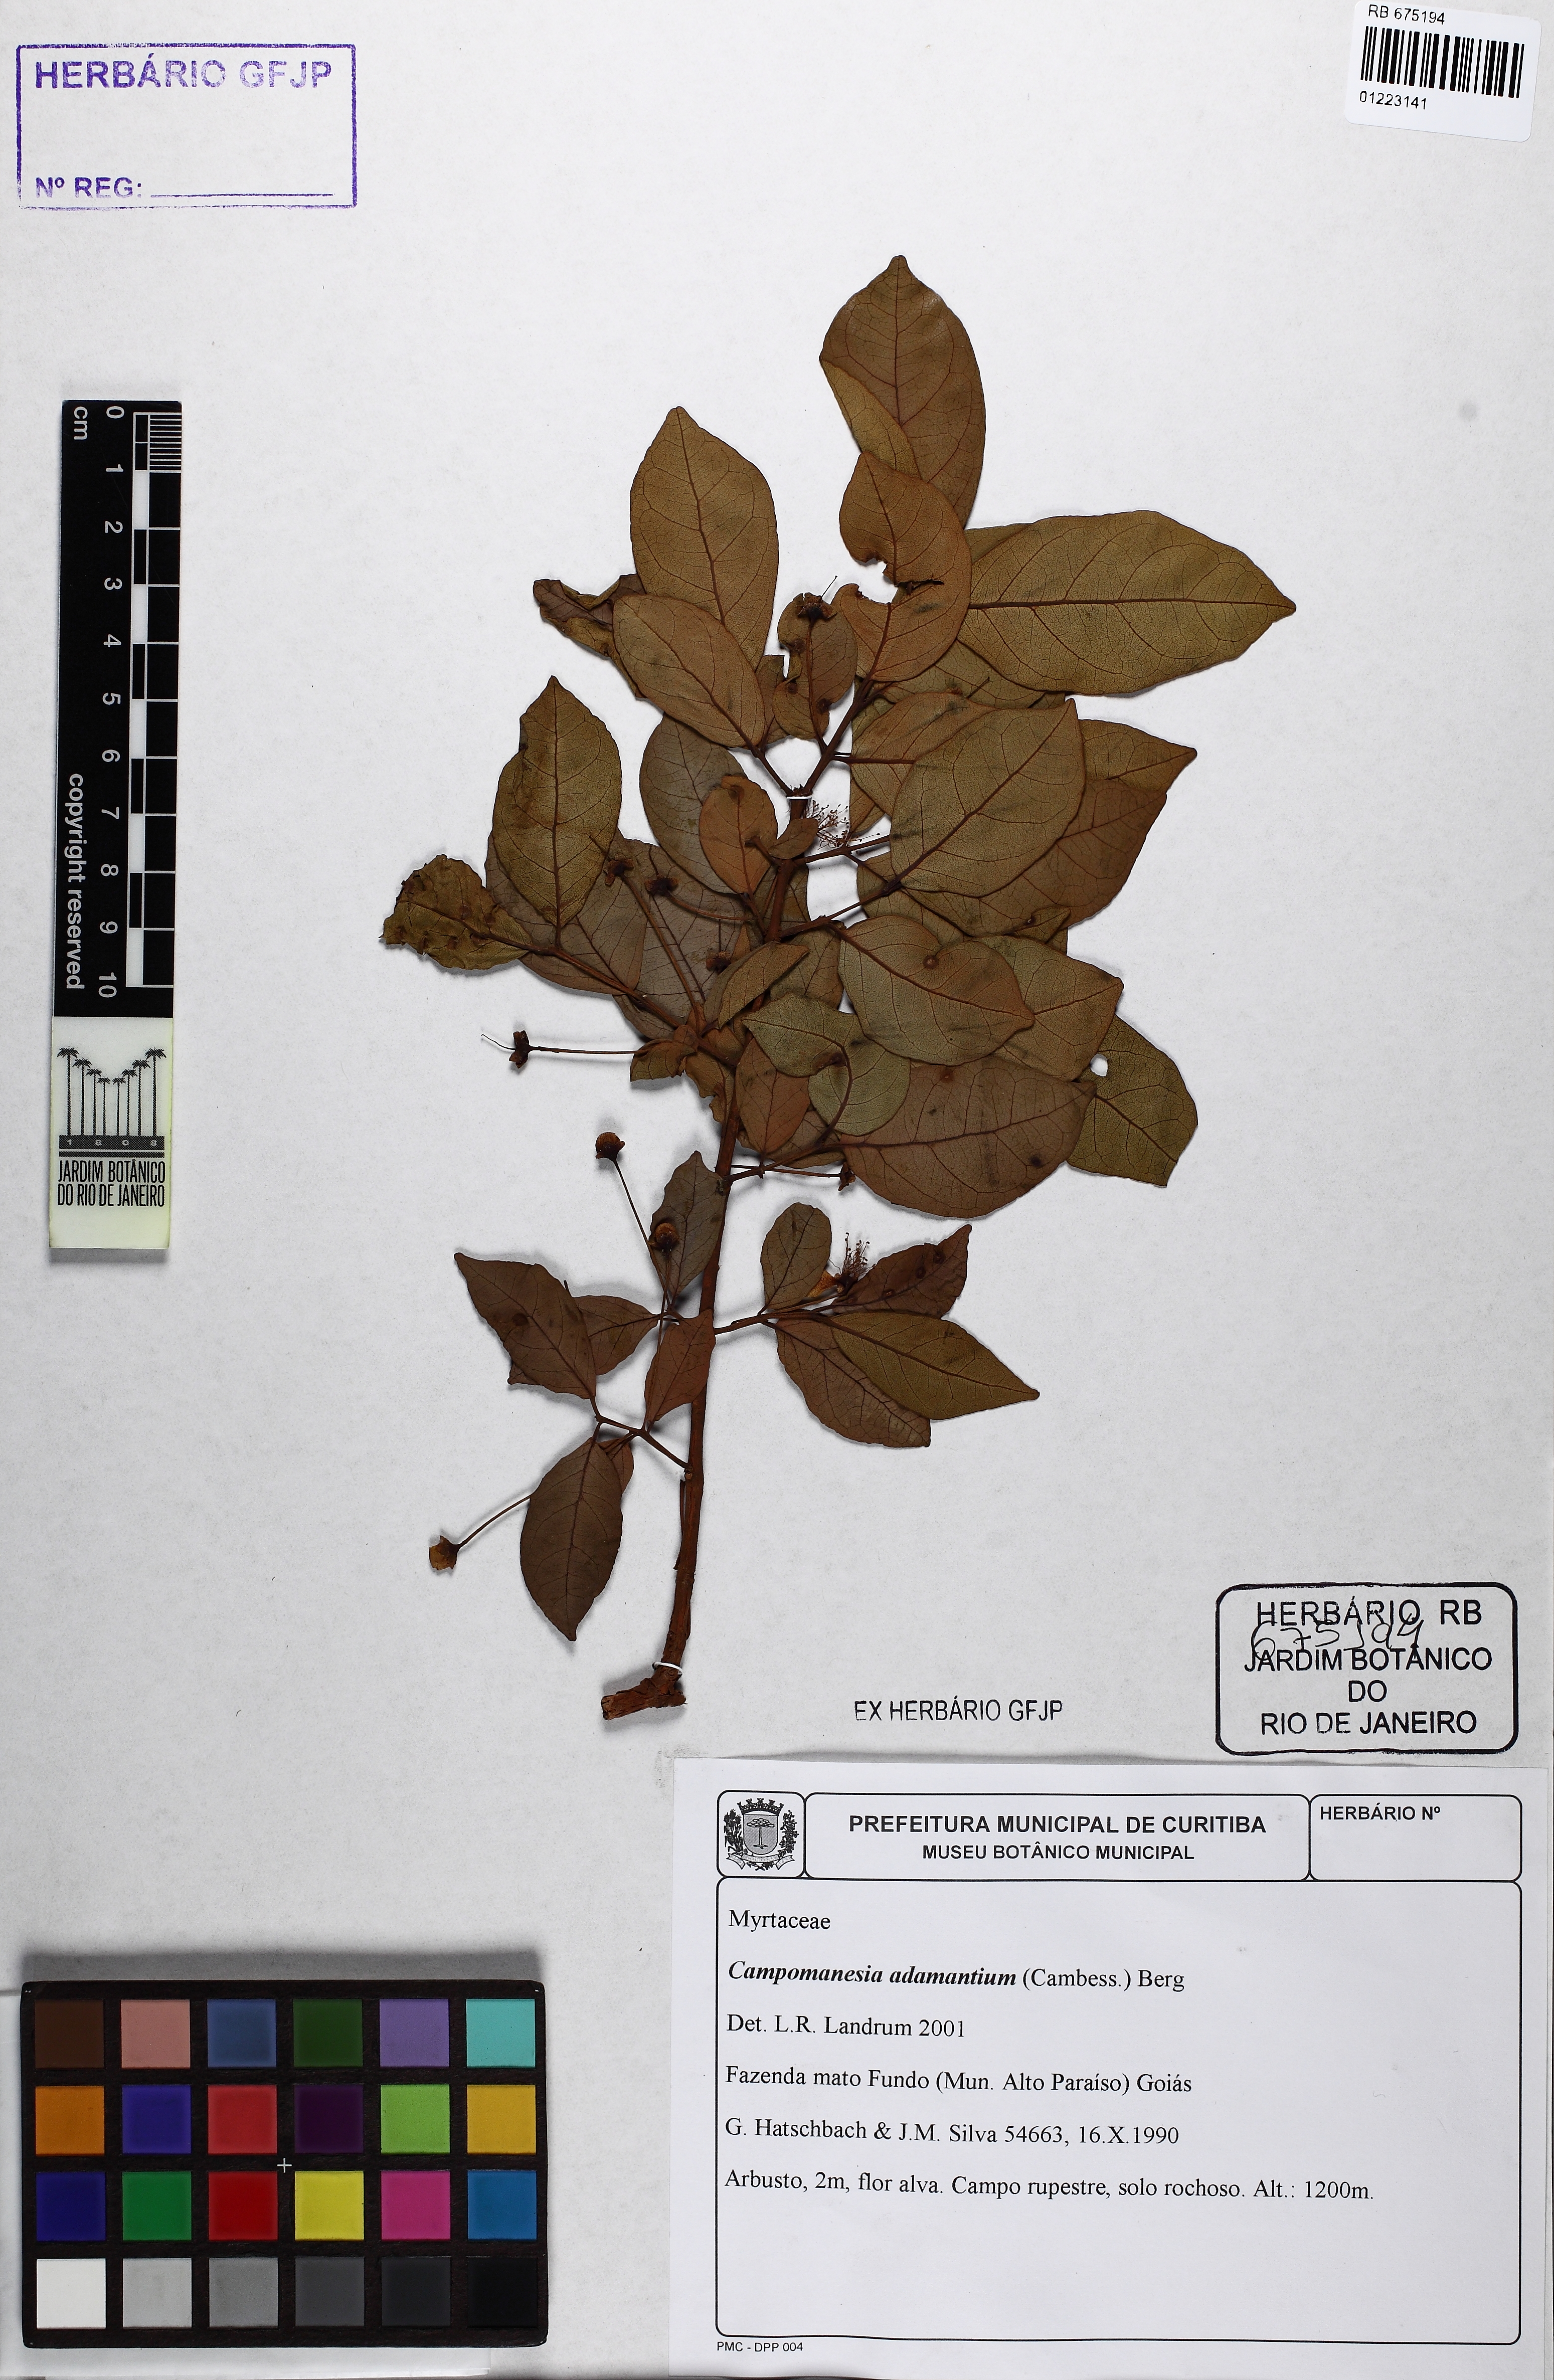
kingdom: Plantae
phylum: Tracheophyta
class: Magnoliopsida
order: Myrtales
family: Myrtaceae
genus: Campomanesia
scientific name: Campomanesia adamantium
